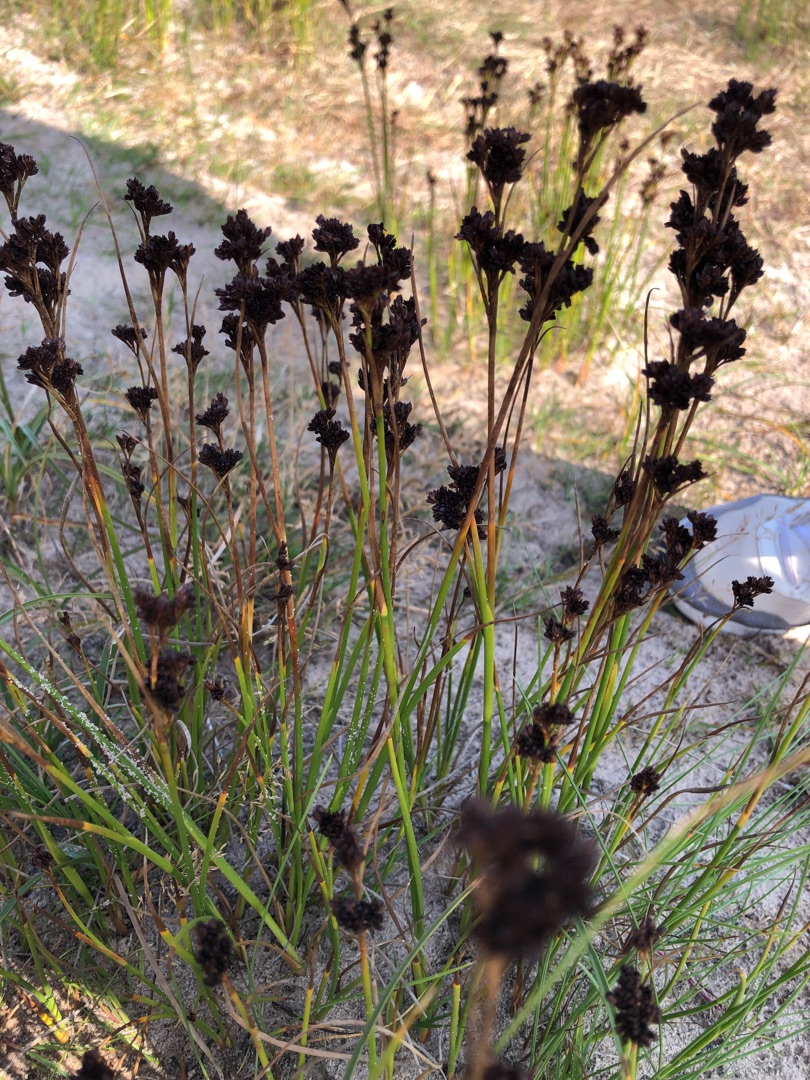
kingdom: Plantae
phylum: Tracheophyta
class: Liliopsida
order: Poales
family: Juncaceae
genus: Juncus
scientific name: Juncus anceps
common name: Sand-siv
